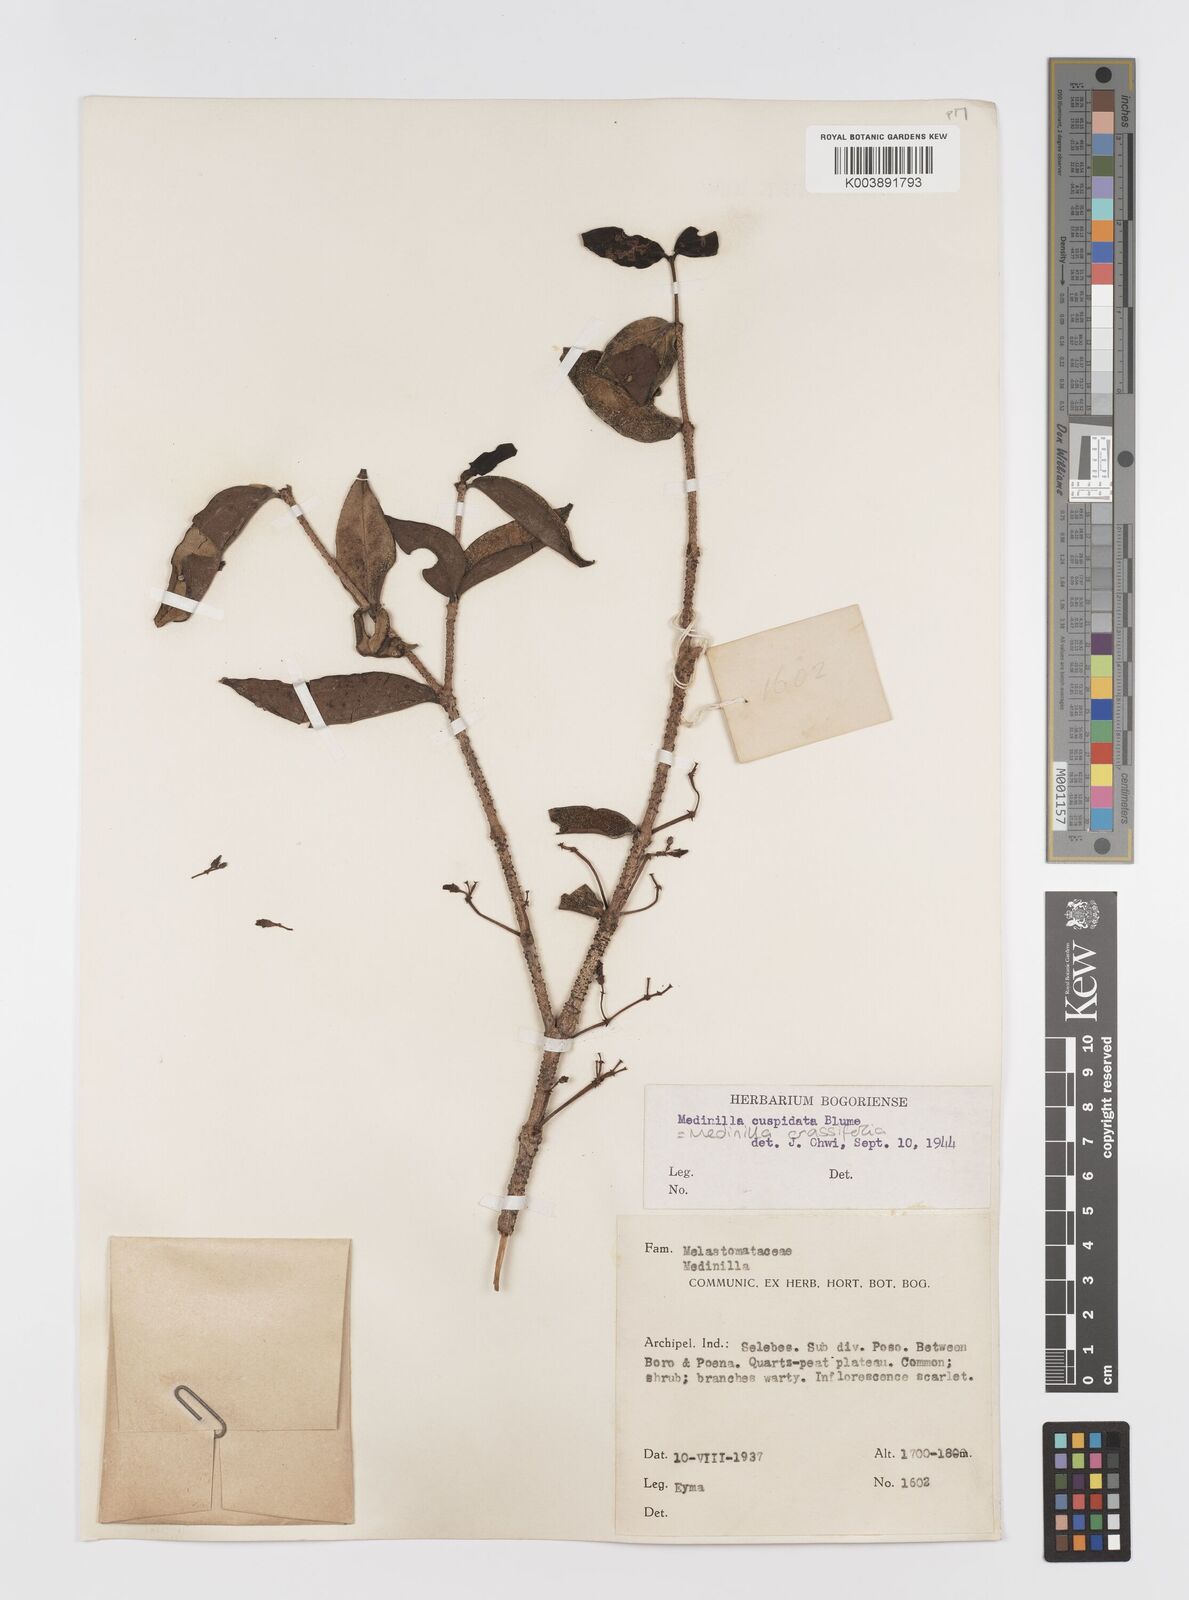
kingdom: Plantae
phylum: Tracheophyta
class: Magnoliopsida
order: Myrtales
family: Melastomataceae
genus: Medinilla
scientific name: Medinilla crassifolia
